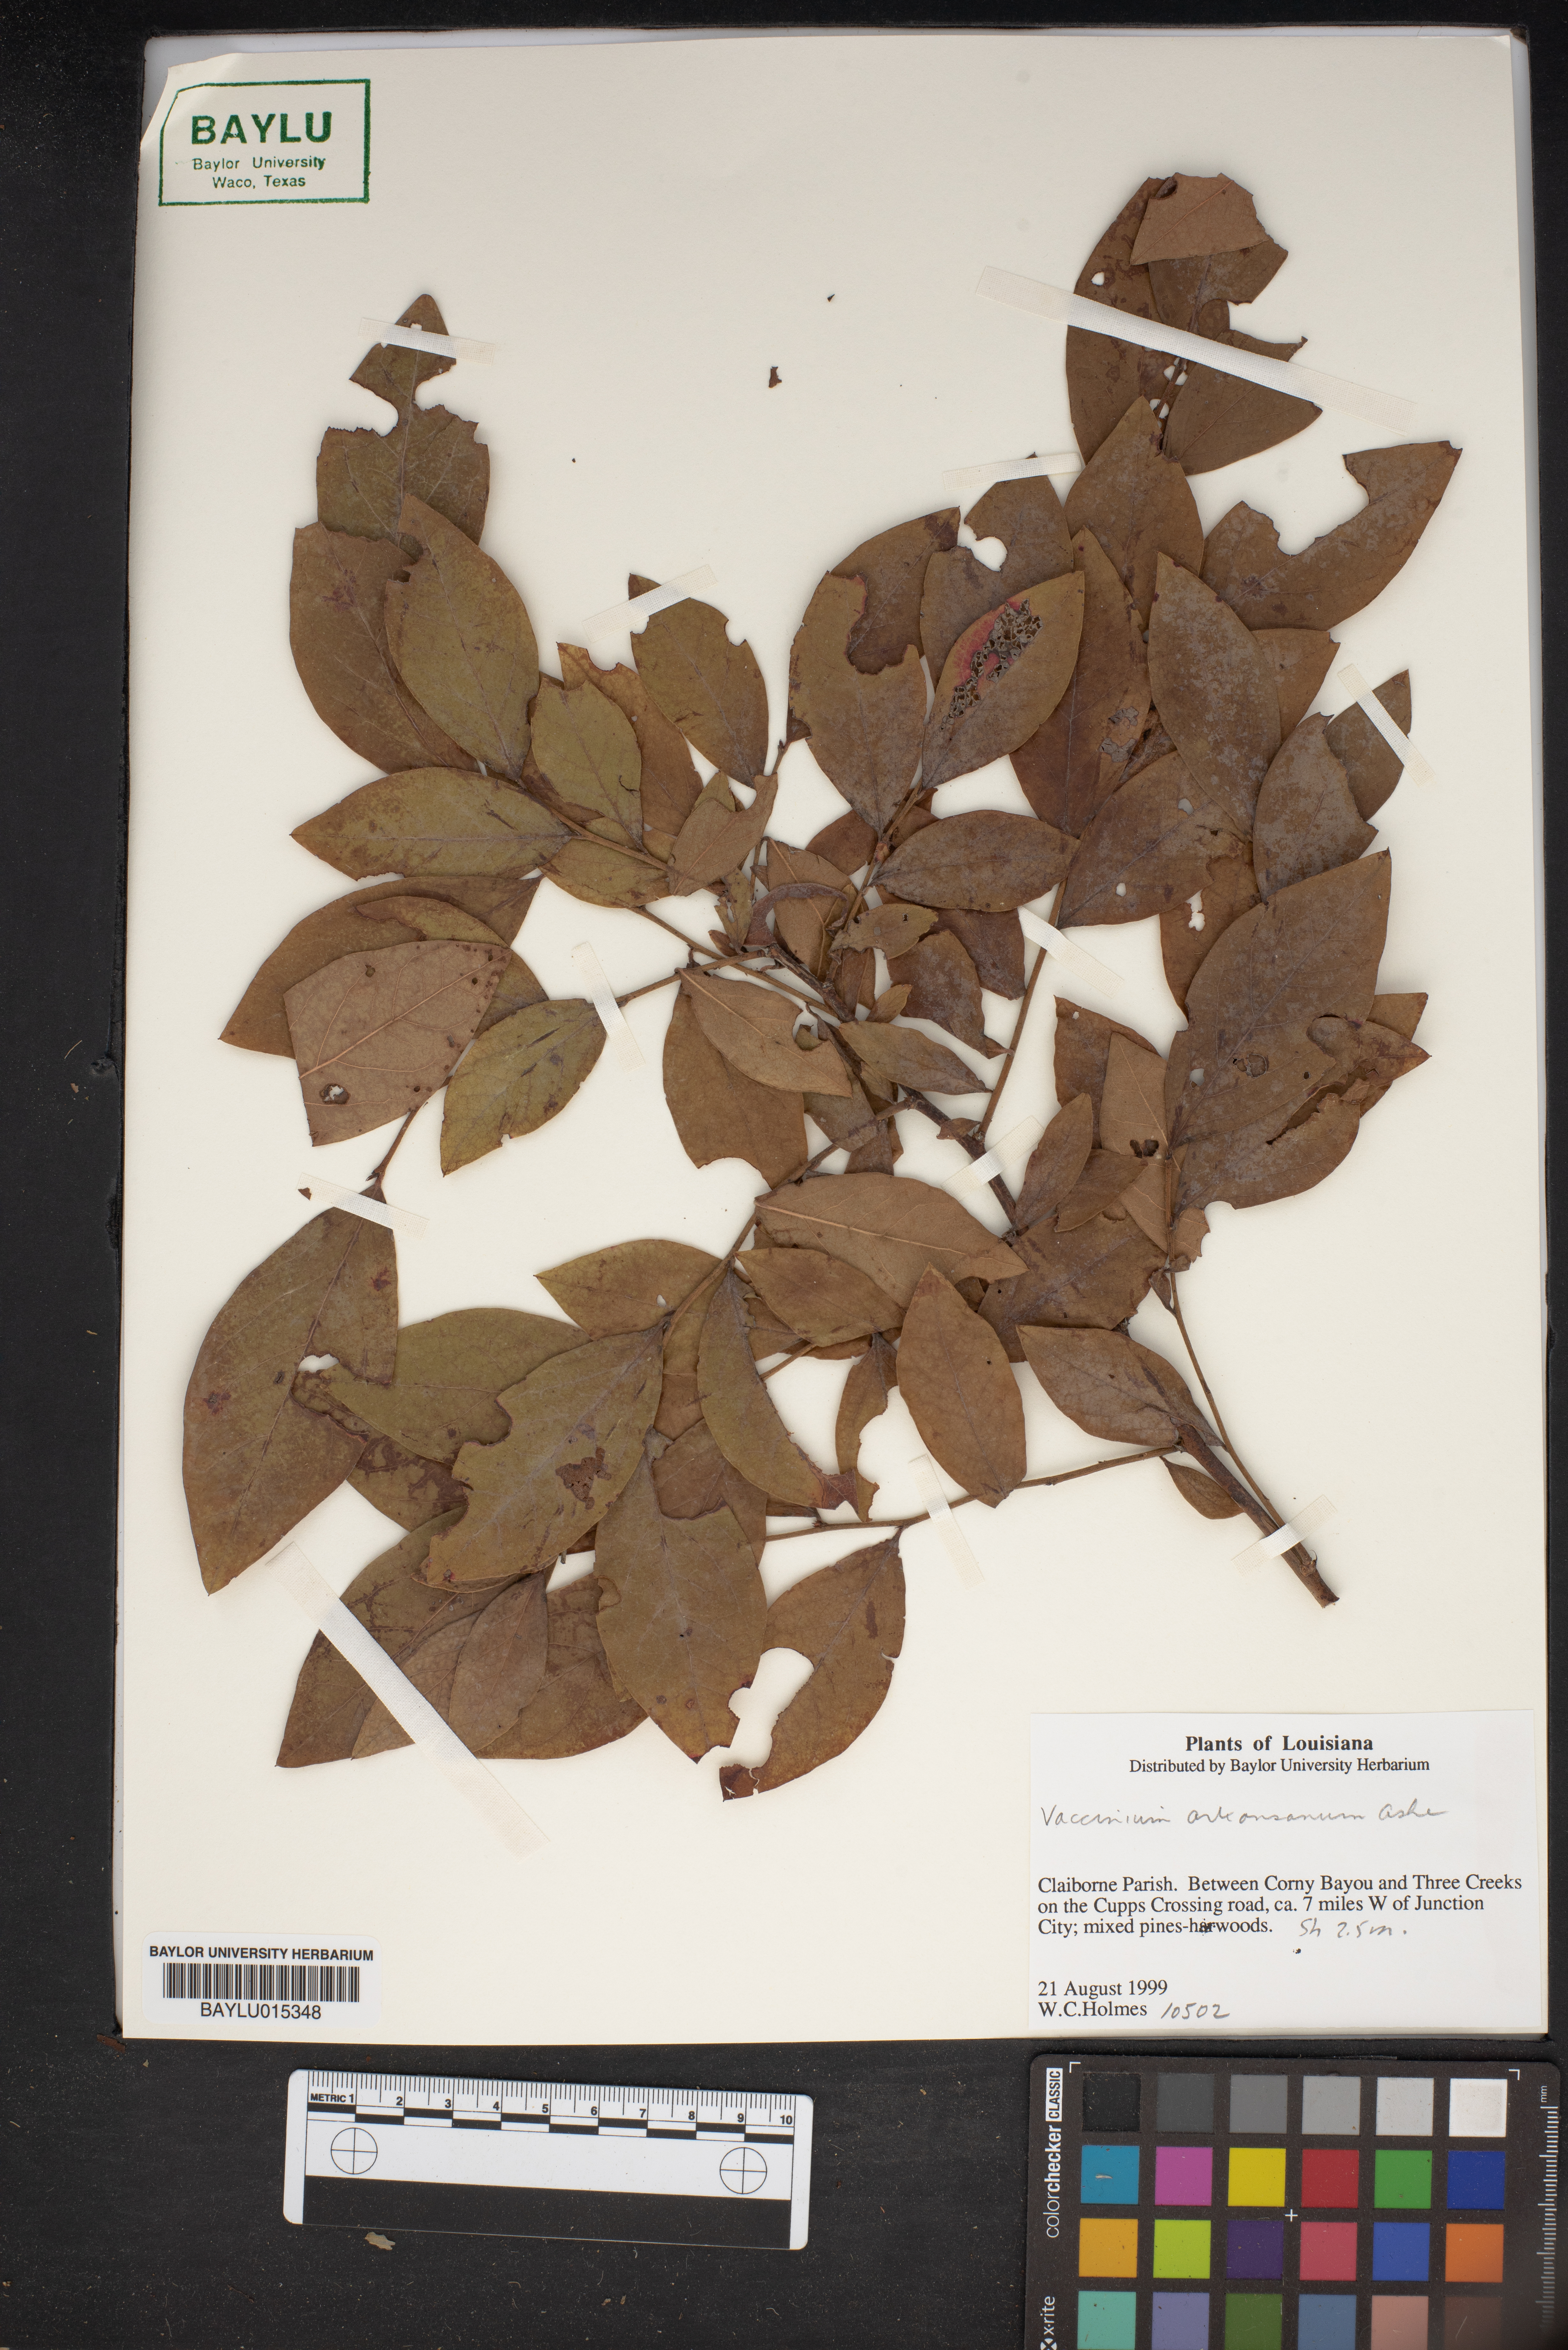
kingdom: Plantae
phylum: Tracheophyta
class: Magnoliopsida
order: Ericales
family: Ericaceae
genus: Vaccinium
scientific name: Vaccinium corymbosum
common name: Blueberry
